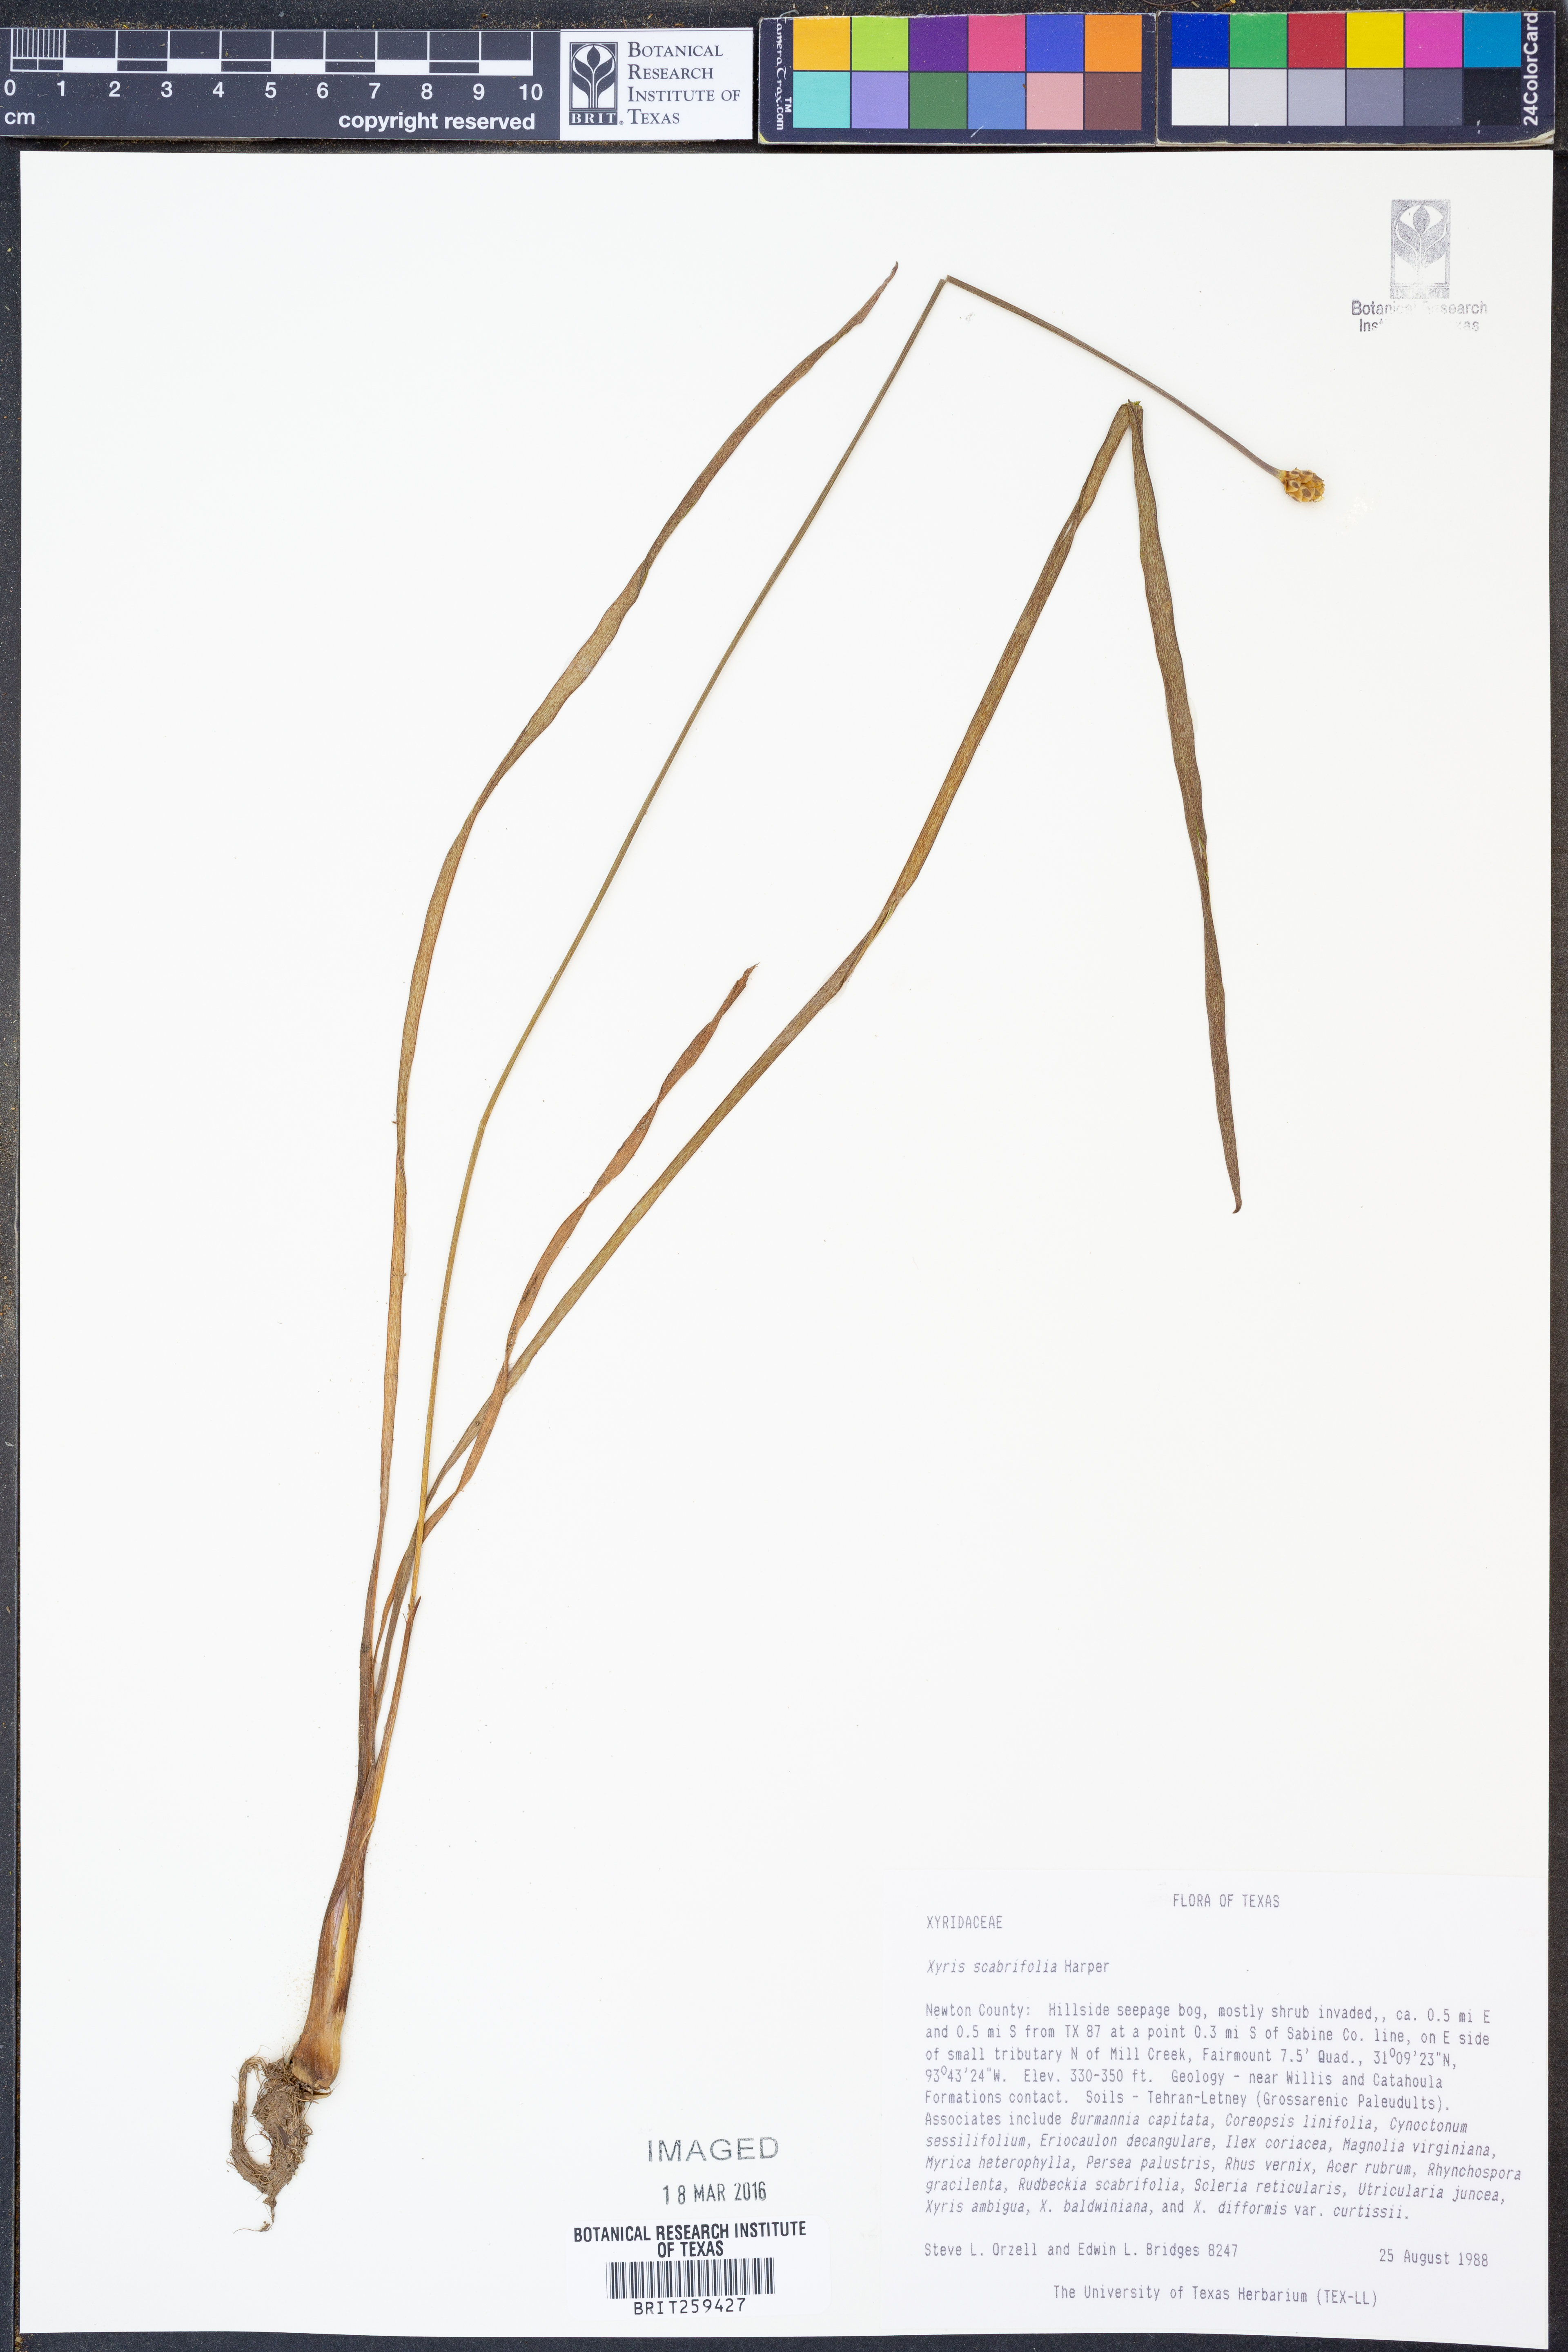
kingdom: Plantae
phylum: Tracheophyta
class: Liliopsida
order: Poales
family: Xyridaceae
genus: Xyris
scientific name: Xyris scabrifolia
